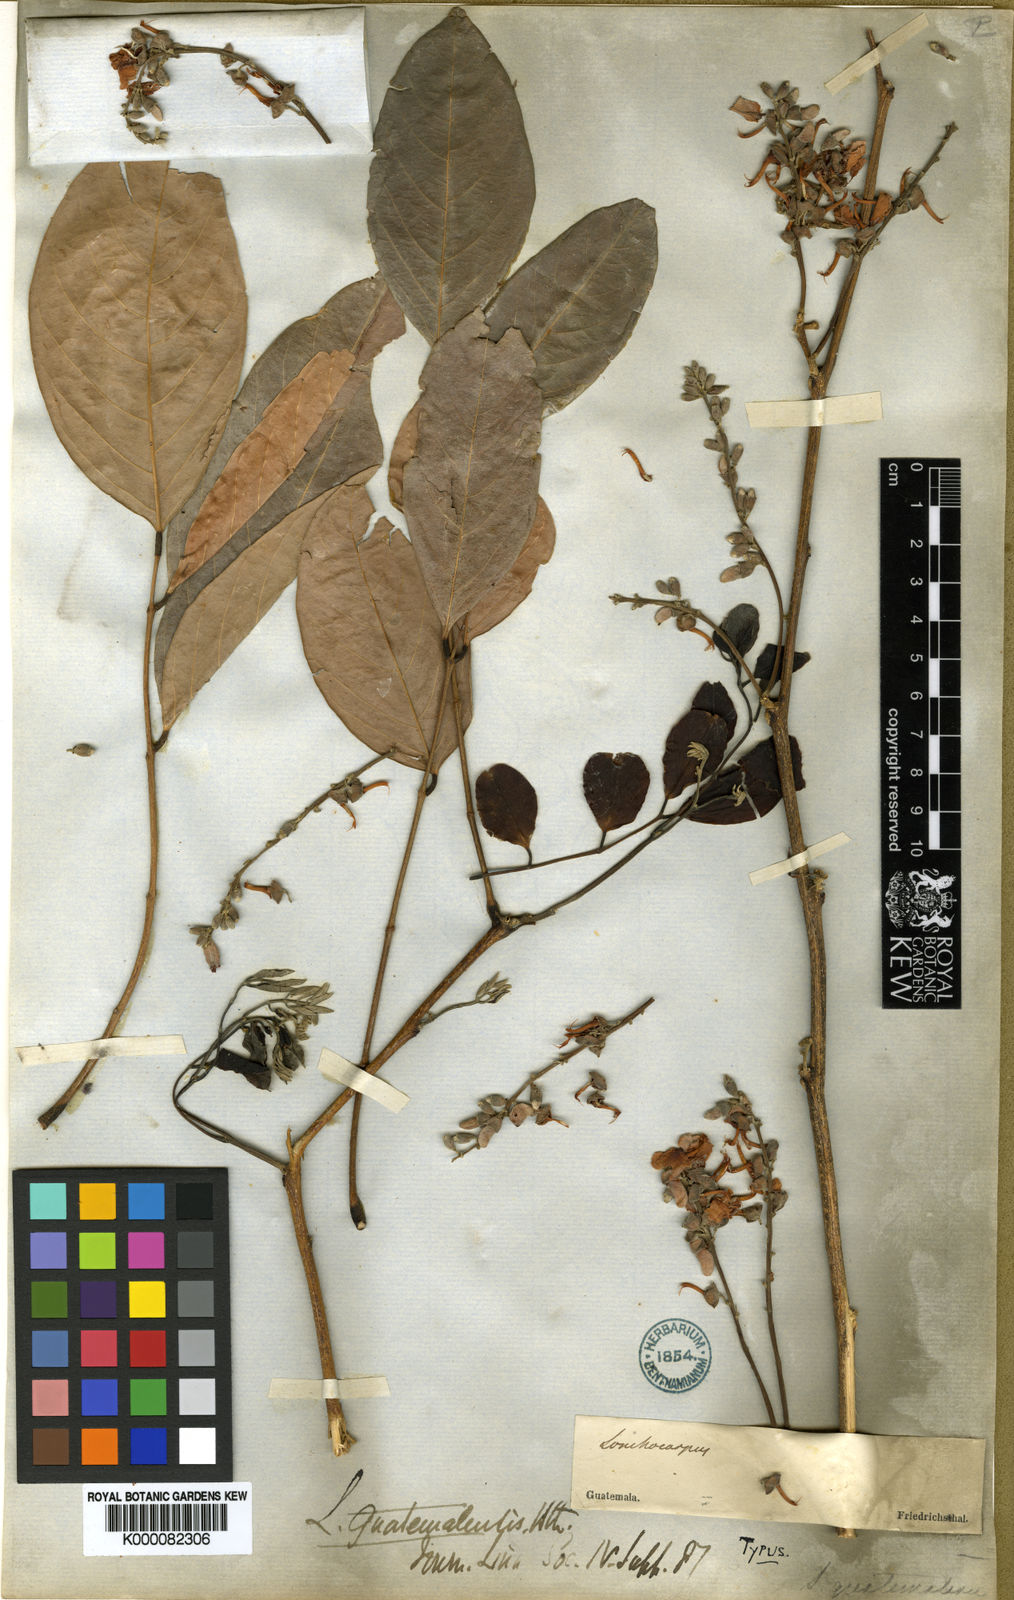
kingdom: Plantae
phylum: Tracheophyta
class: Magnoliopsida
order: Fabales
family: Fabaceae
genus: Lonchocarpus
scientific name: Lonchocarpus guatemalensis
